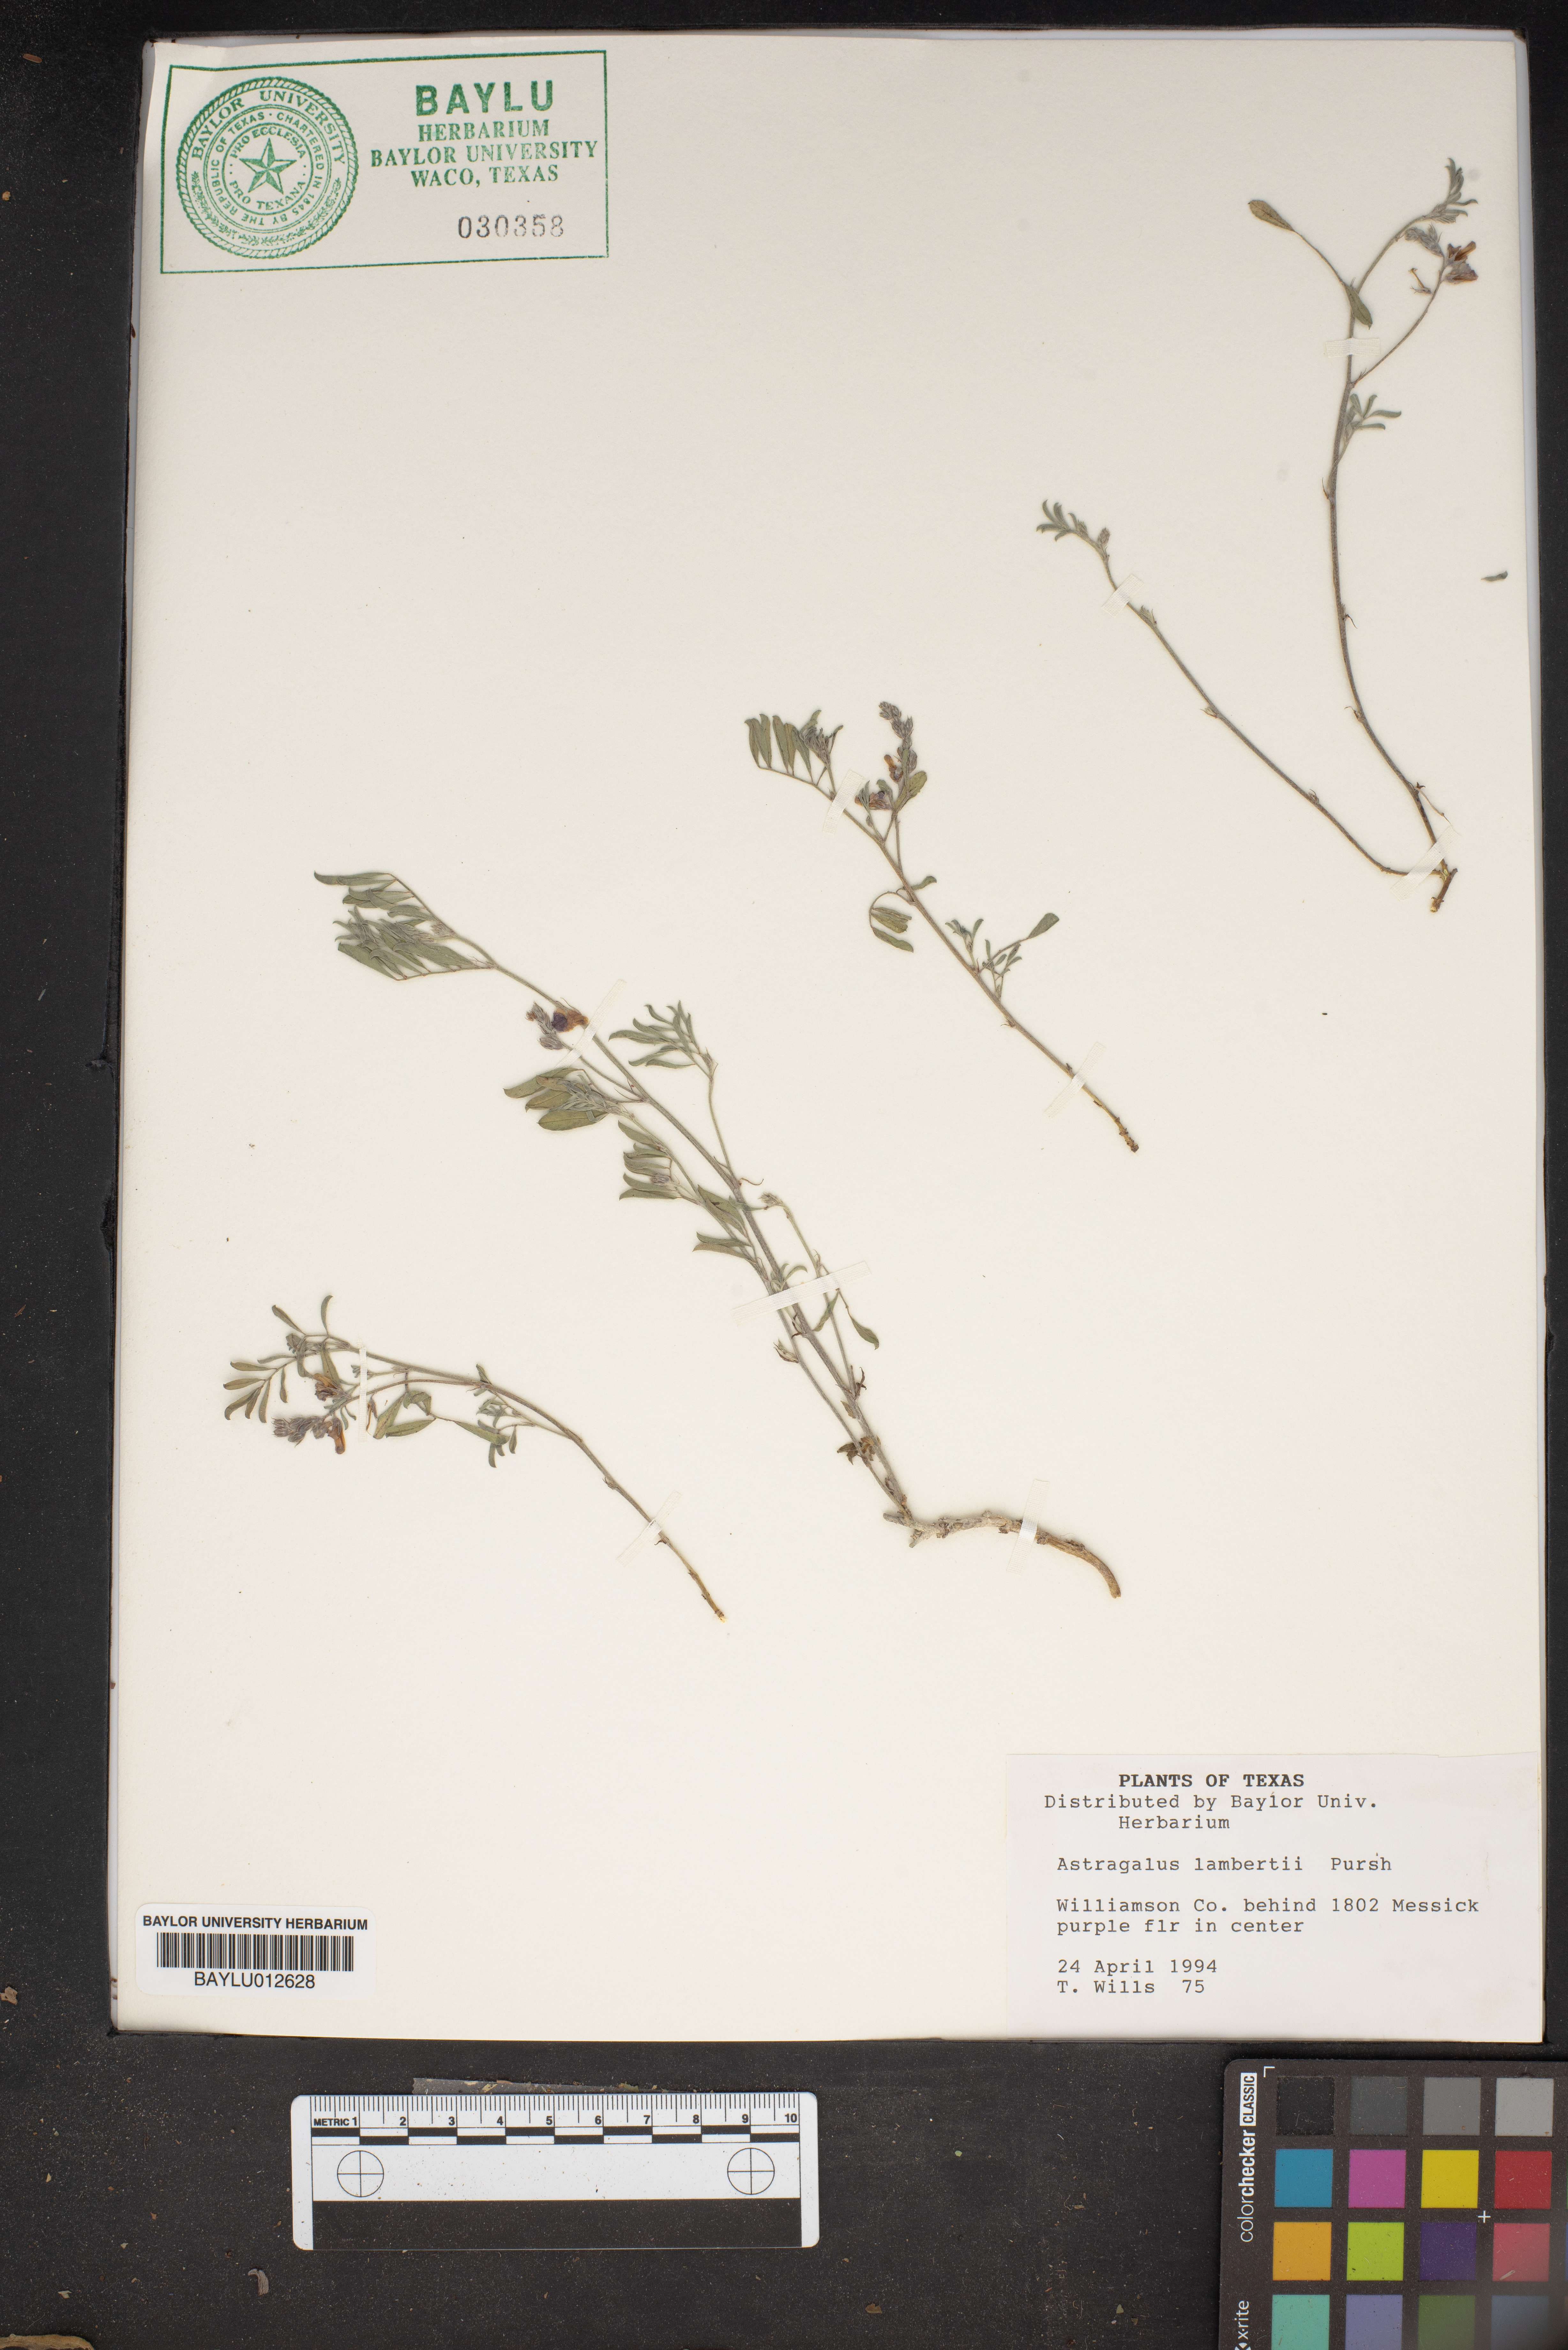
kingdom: Plantae
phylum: Tracheophyta
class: Magnoliopsida
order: Fabales
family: Fabaceae
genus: Oxytropis
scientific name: Oxytropis lambertii
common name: Purple locoweed
